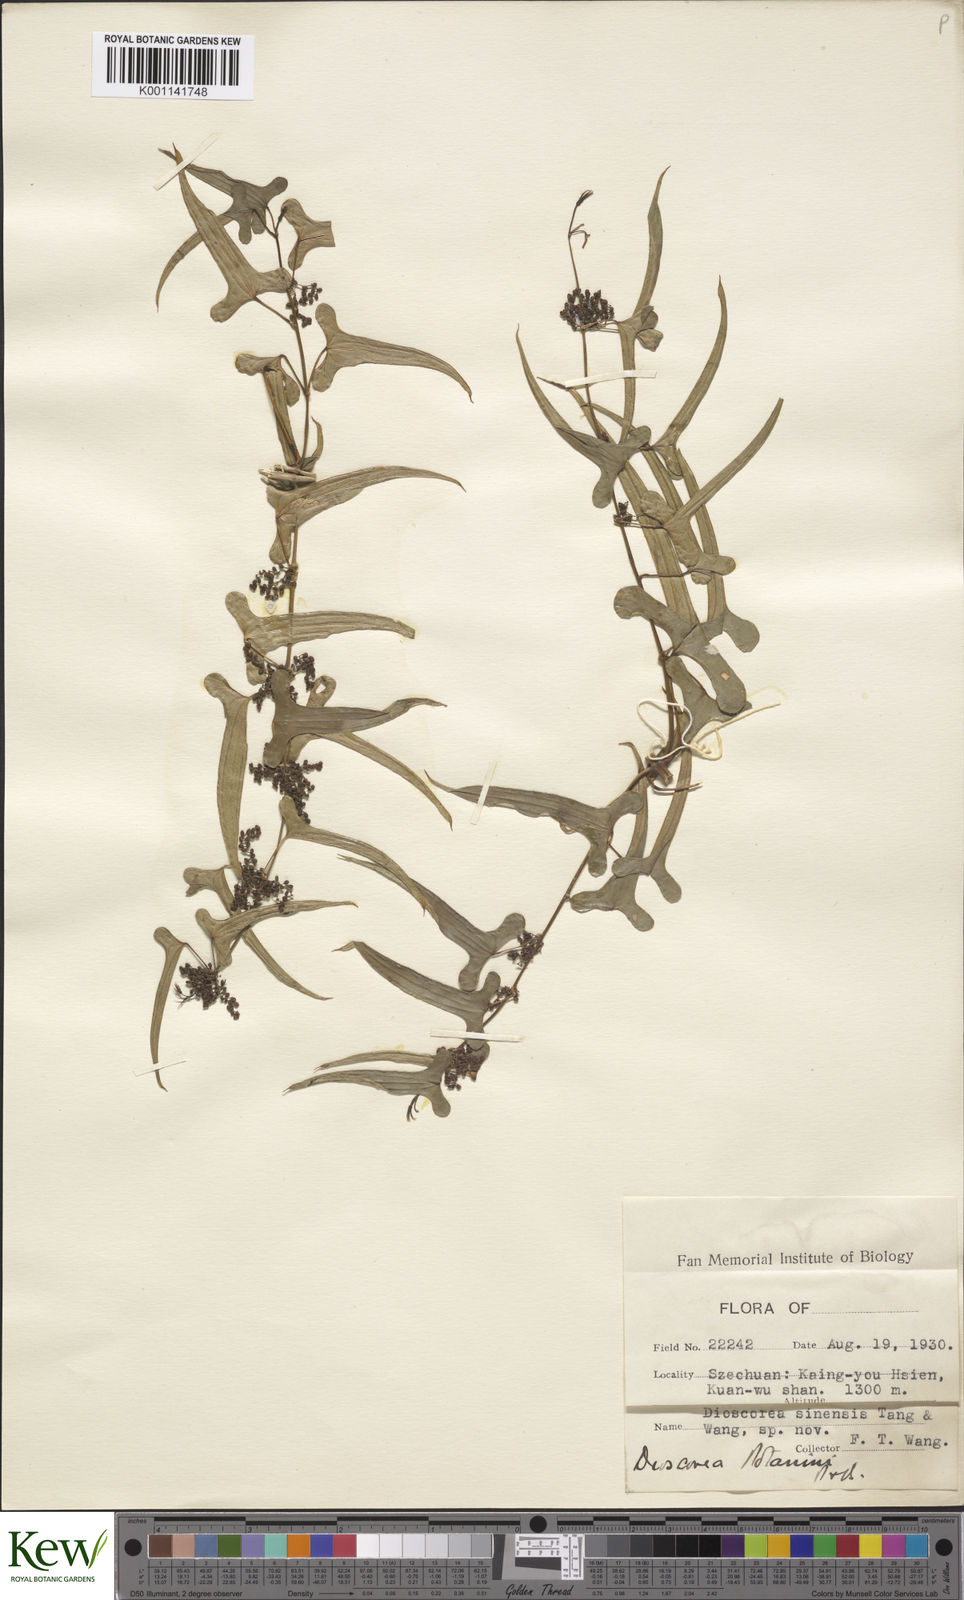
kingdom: Plantae
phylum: Tracheophyta
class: Liliopsida
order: Dioscoreales
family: Dioscoreaceae
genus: Dioscorea
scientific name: Dioscorea polystachya
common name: Chinese yam
